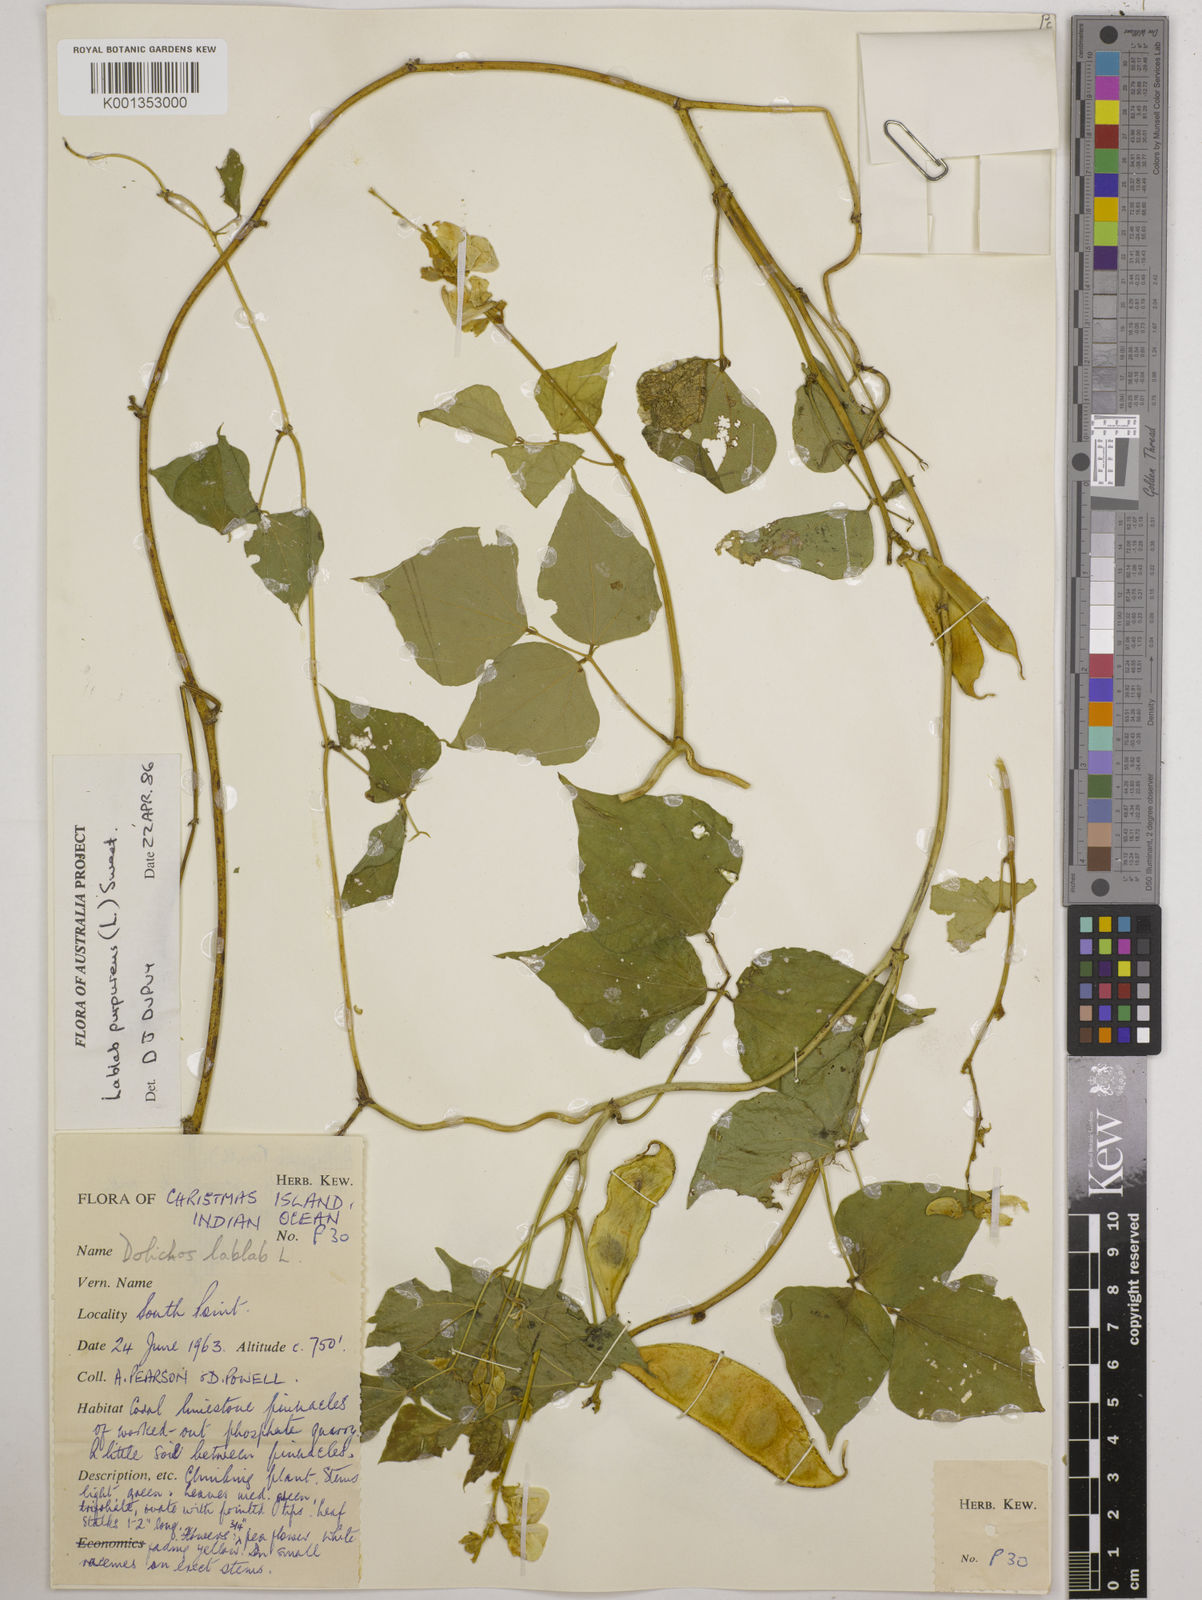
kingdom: Plantae
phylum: Tracheophyta
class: Magnoliopsida
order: Fabales
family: Fabaceae
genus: Lablab
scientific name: Lablab purpureus
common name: Lablab-bean
